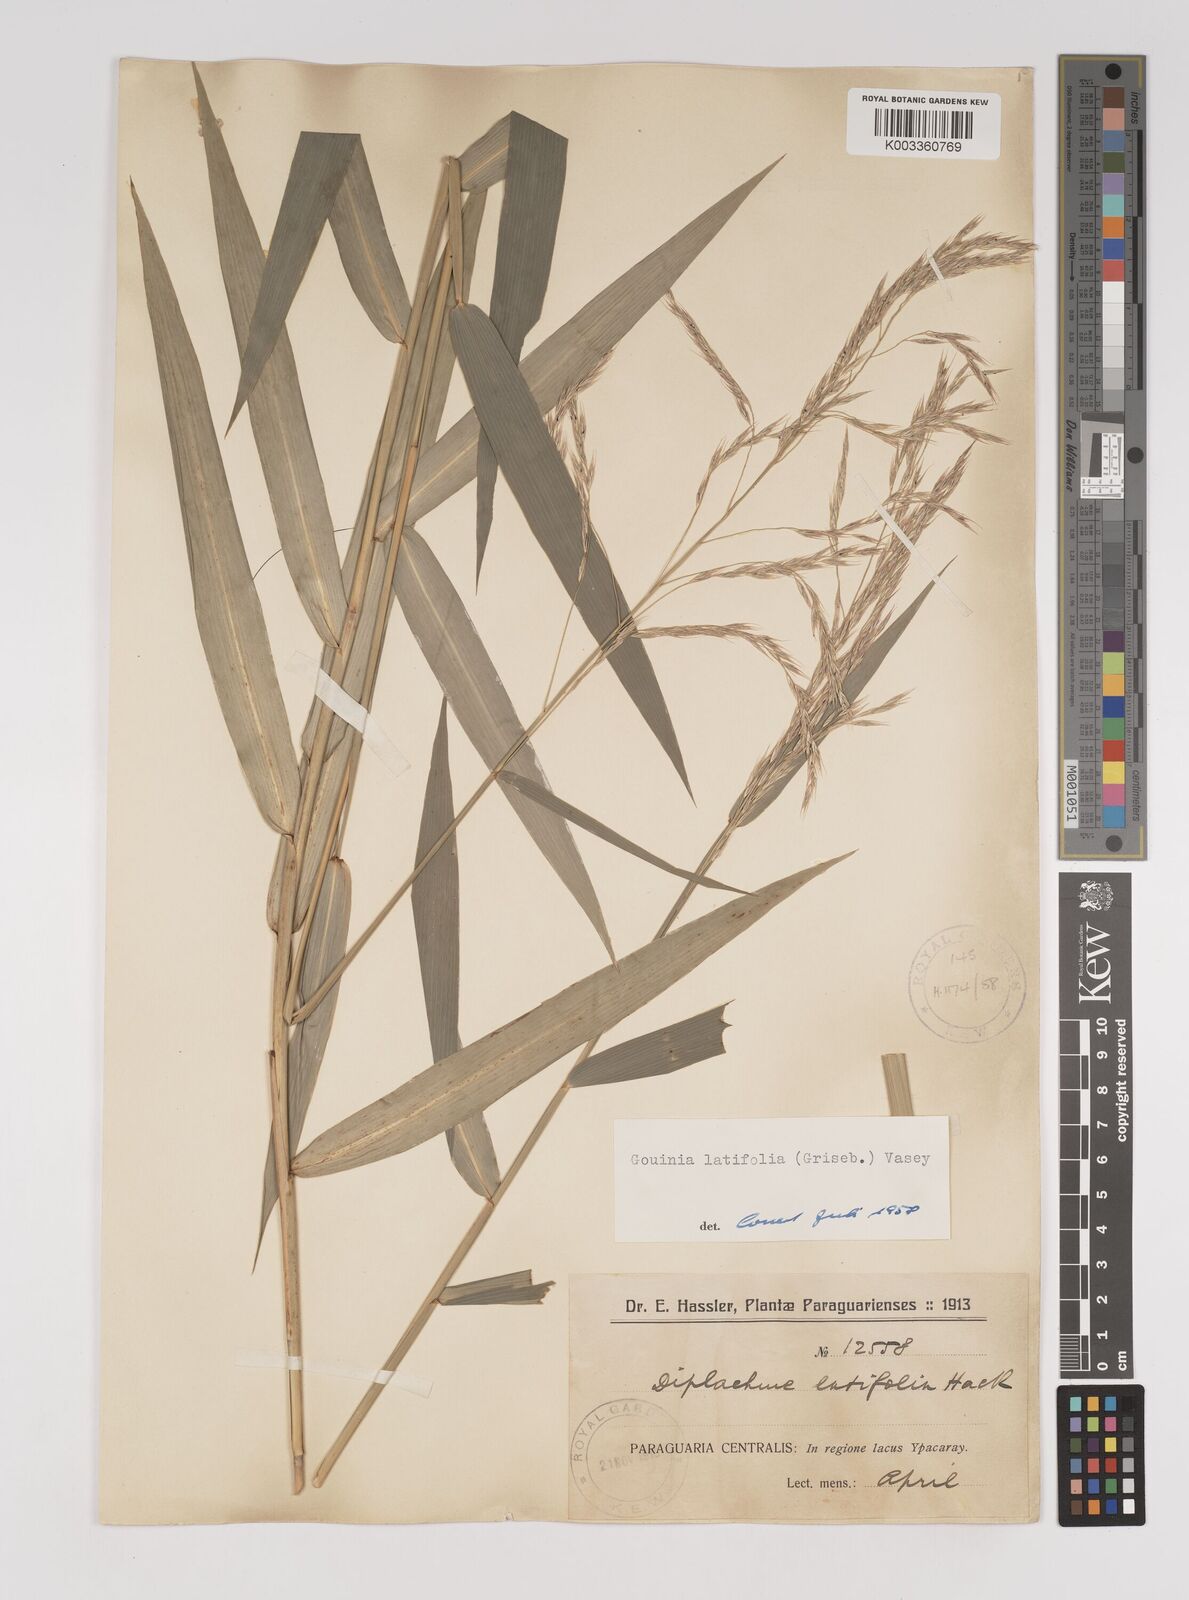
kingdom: Plantae
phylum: Tracheophyta
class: Liliopsida
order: Poales
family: Poaceae
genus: Gouinia
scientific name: Gouinia latifolia
